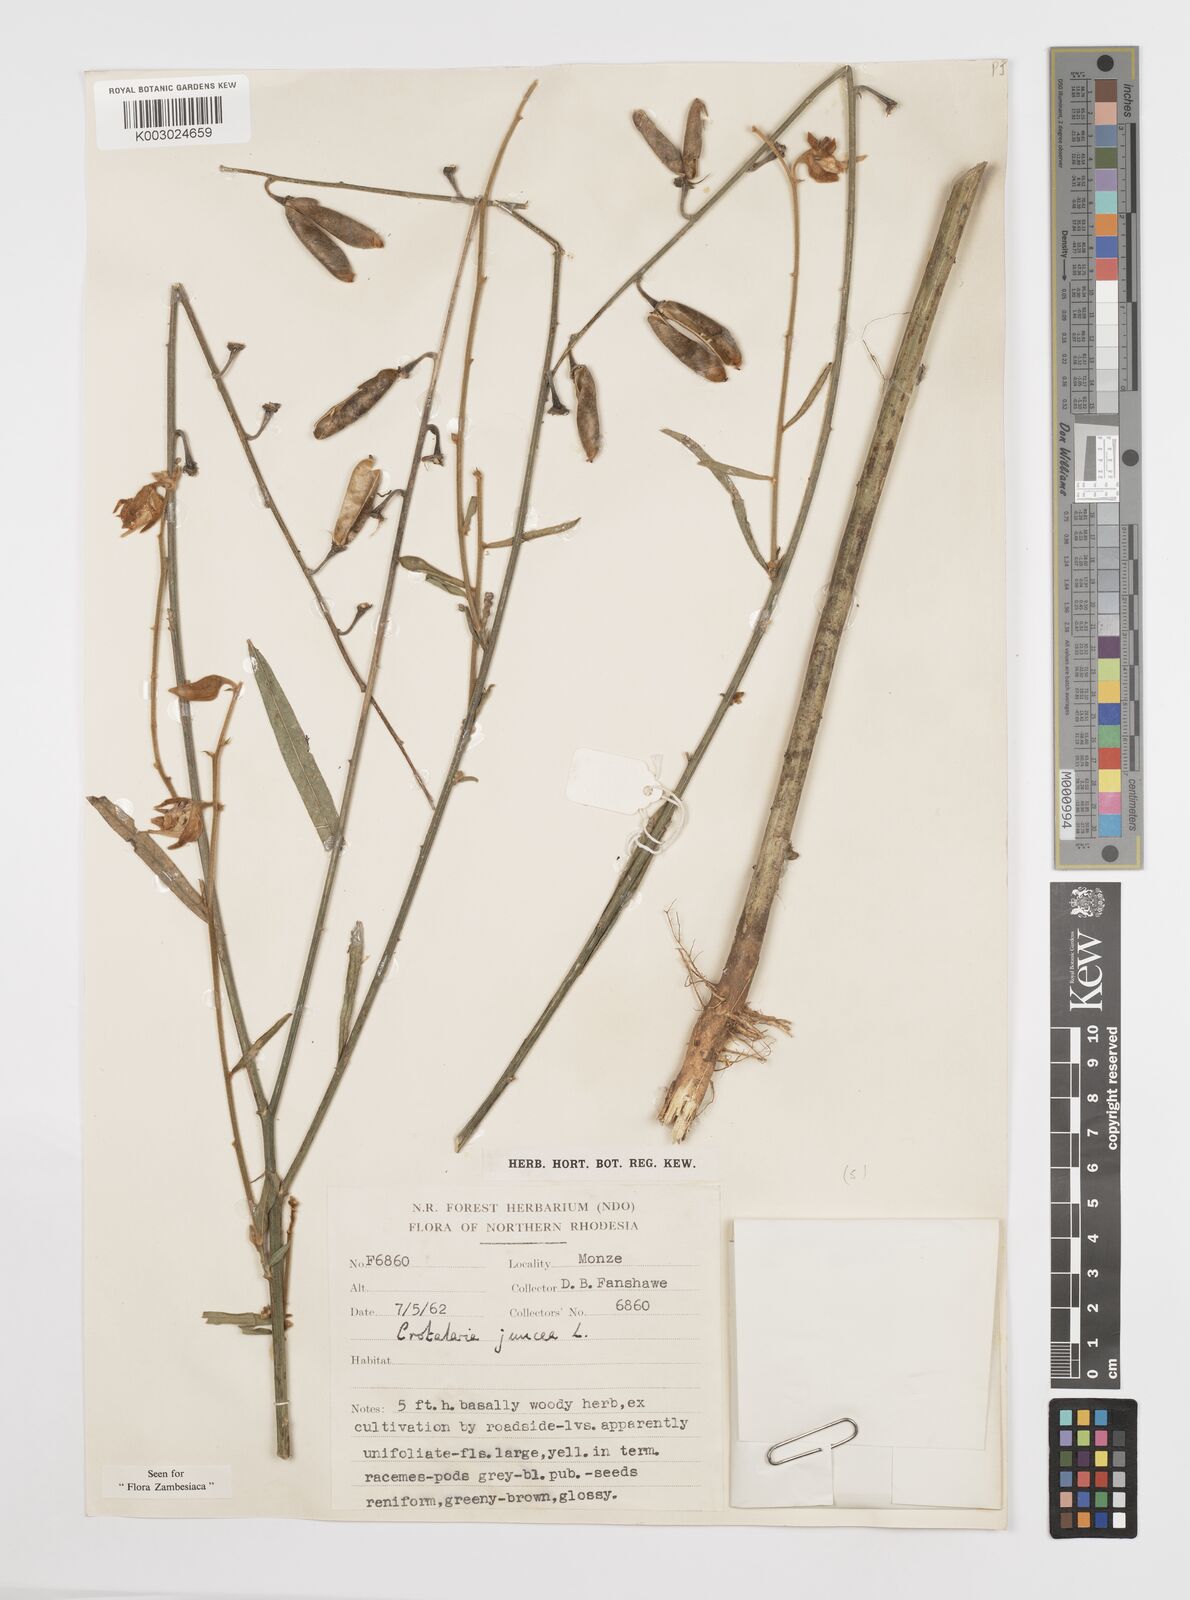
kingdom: Plantae
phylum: Tracheophyta
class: Magnoliopsida
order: Fabales
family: Fabaceae
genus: Crotalaria
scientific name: Crotalaria juncea
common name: Sunn hemp
